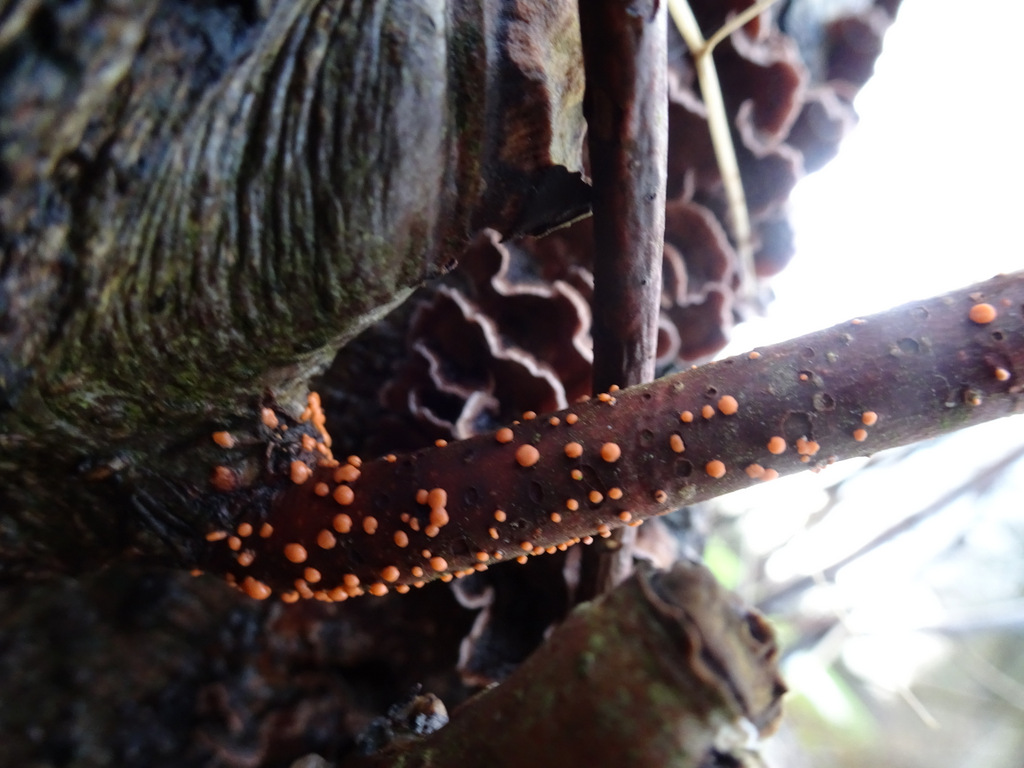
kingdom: Fungi
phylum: Ascomycota
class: Sordariomycetes
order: Hypocreales
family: Nectriaceae
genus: Nectria
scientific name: Nectria cinnabarina
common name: almindelig cinnobersvamp
